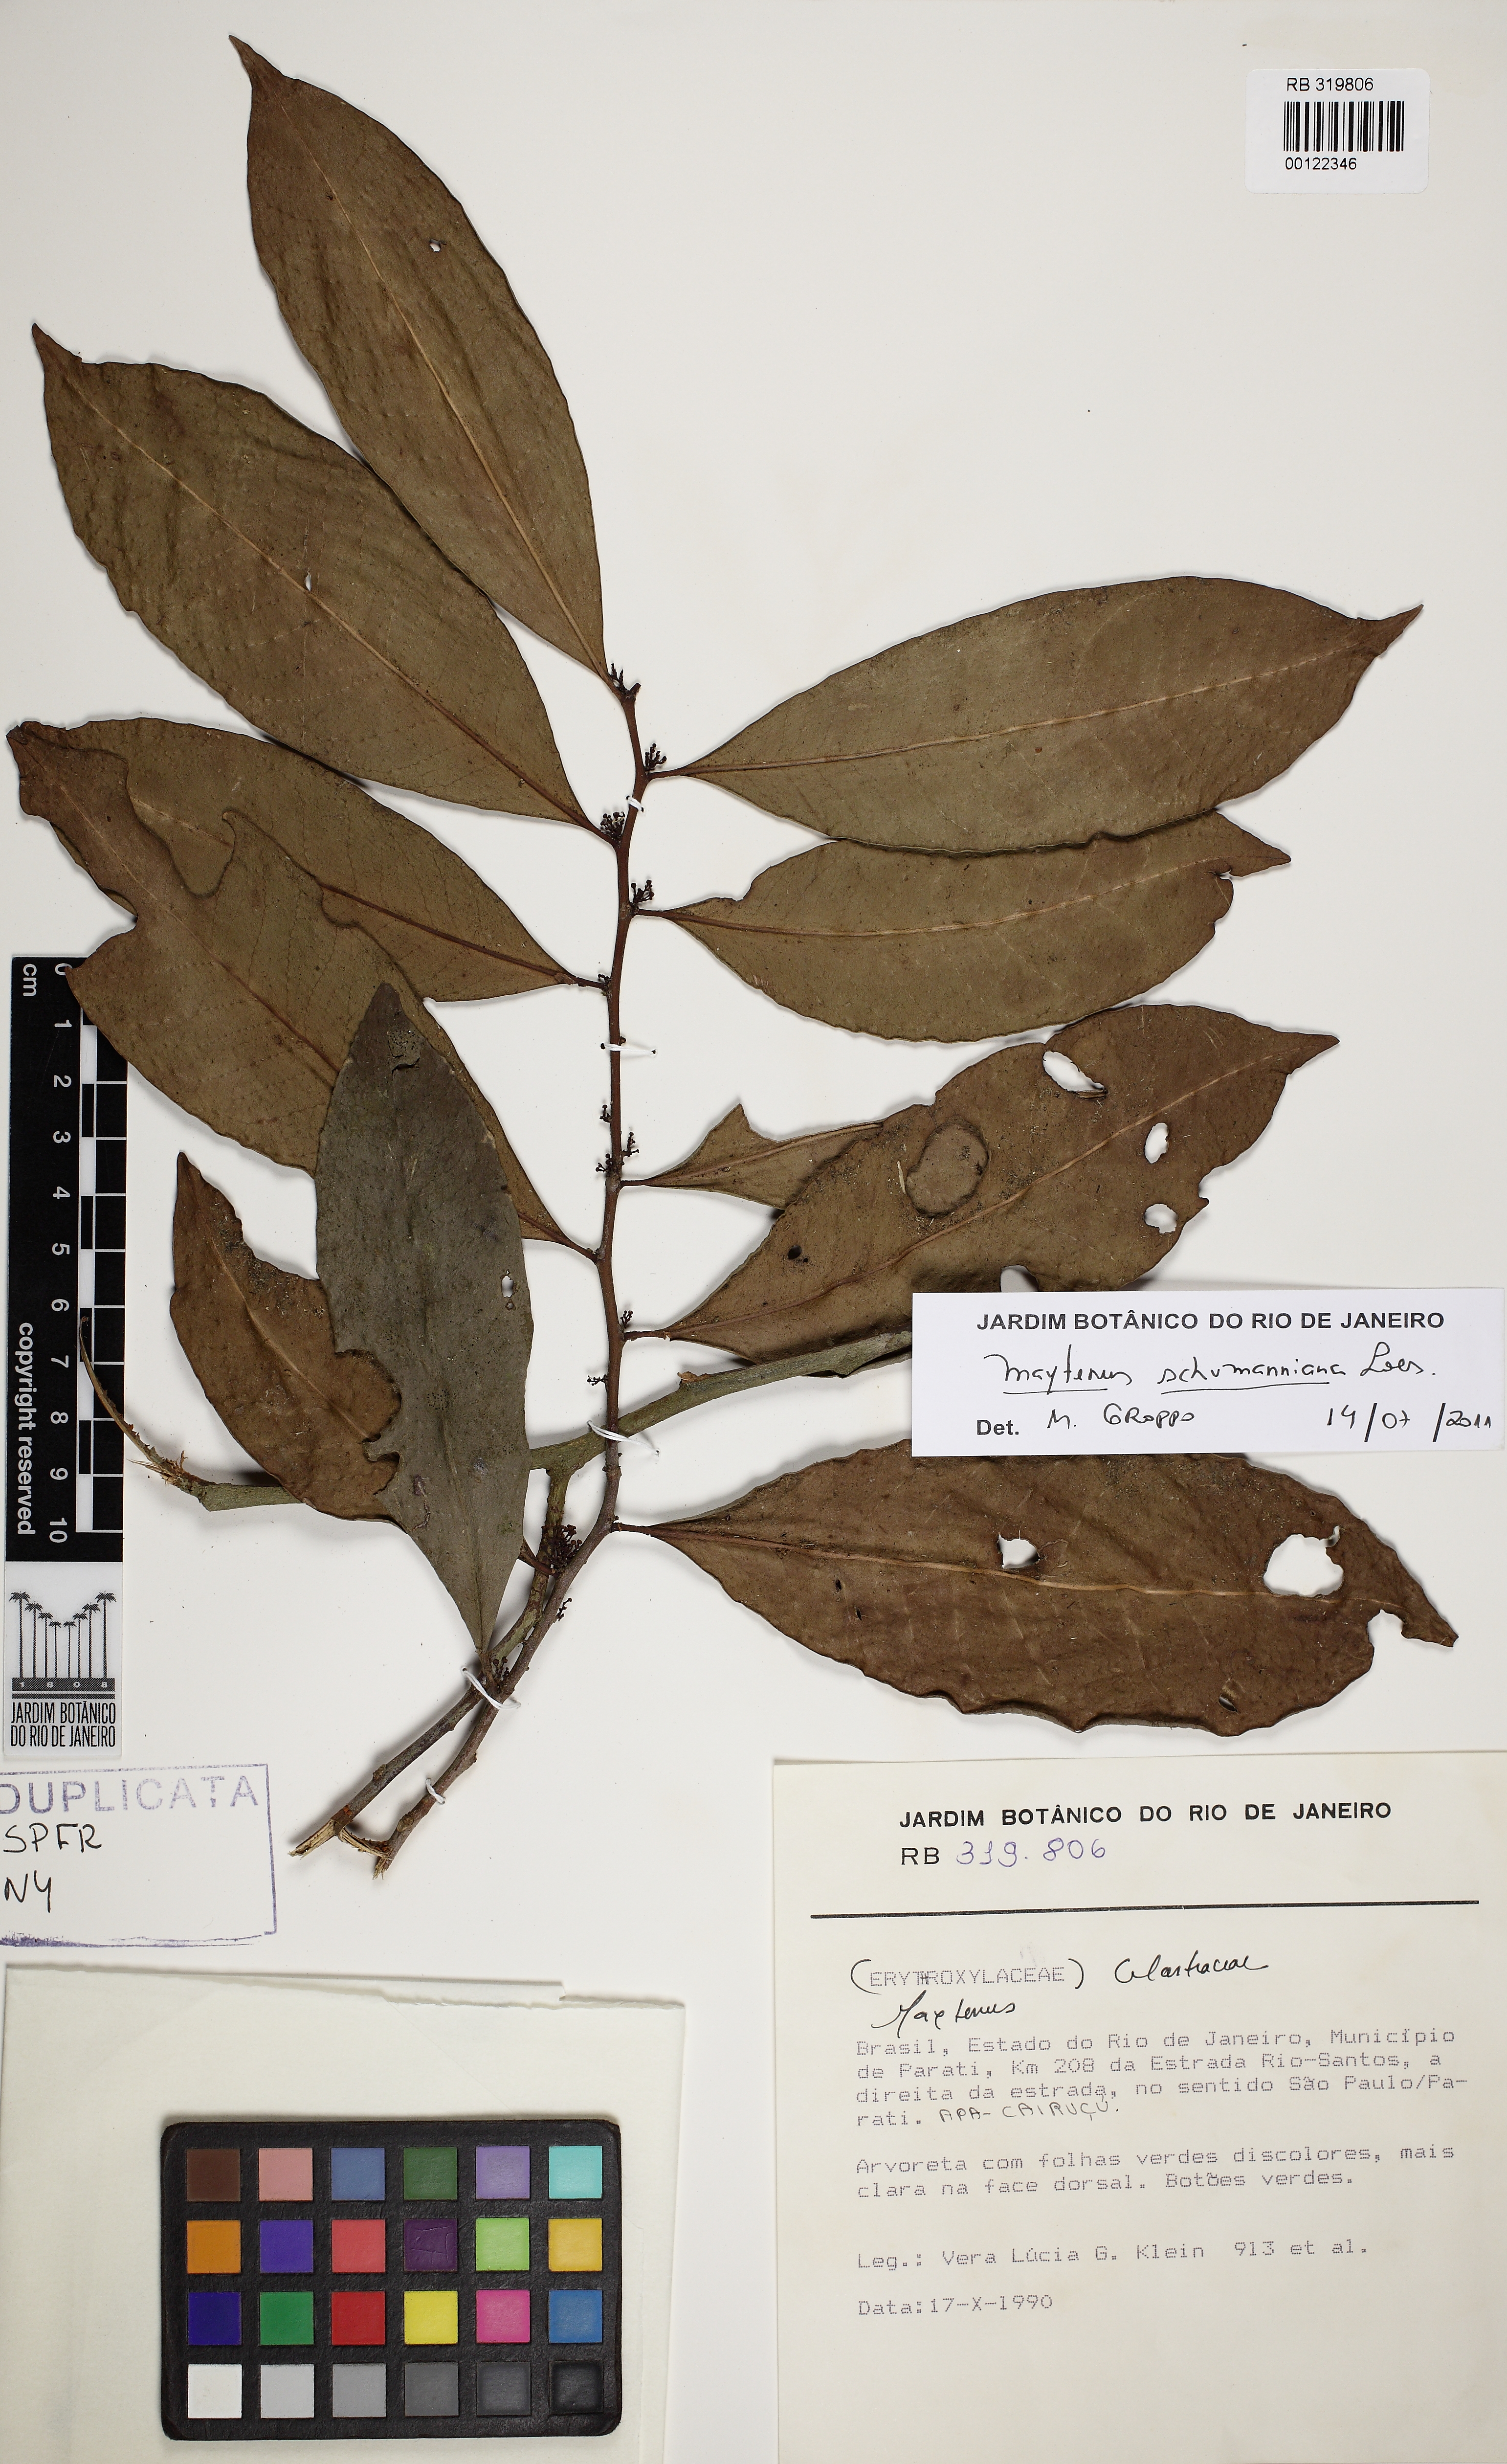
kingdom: Plantae
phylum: Tracheophyta
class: Magnoliopsida
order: Celastrales
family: Celastraceae
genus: Monteverdia
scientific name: Monteverdia ardisiifolia
